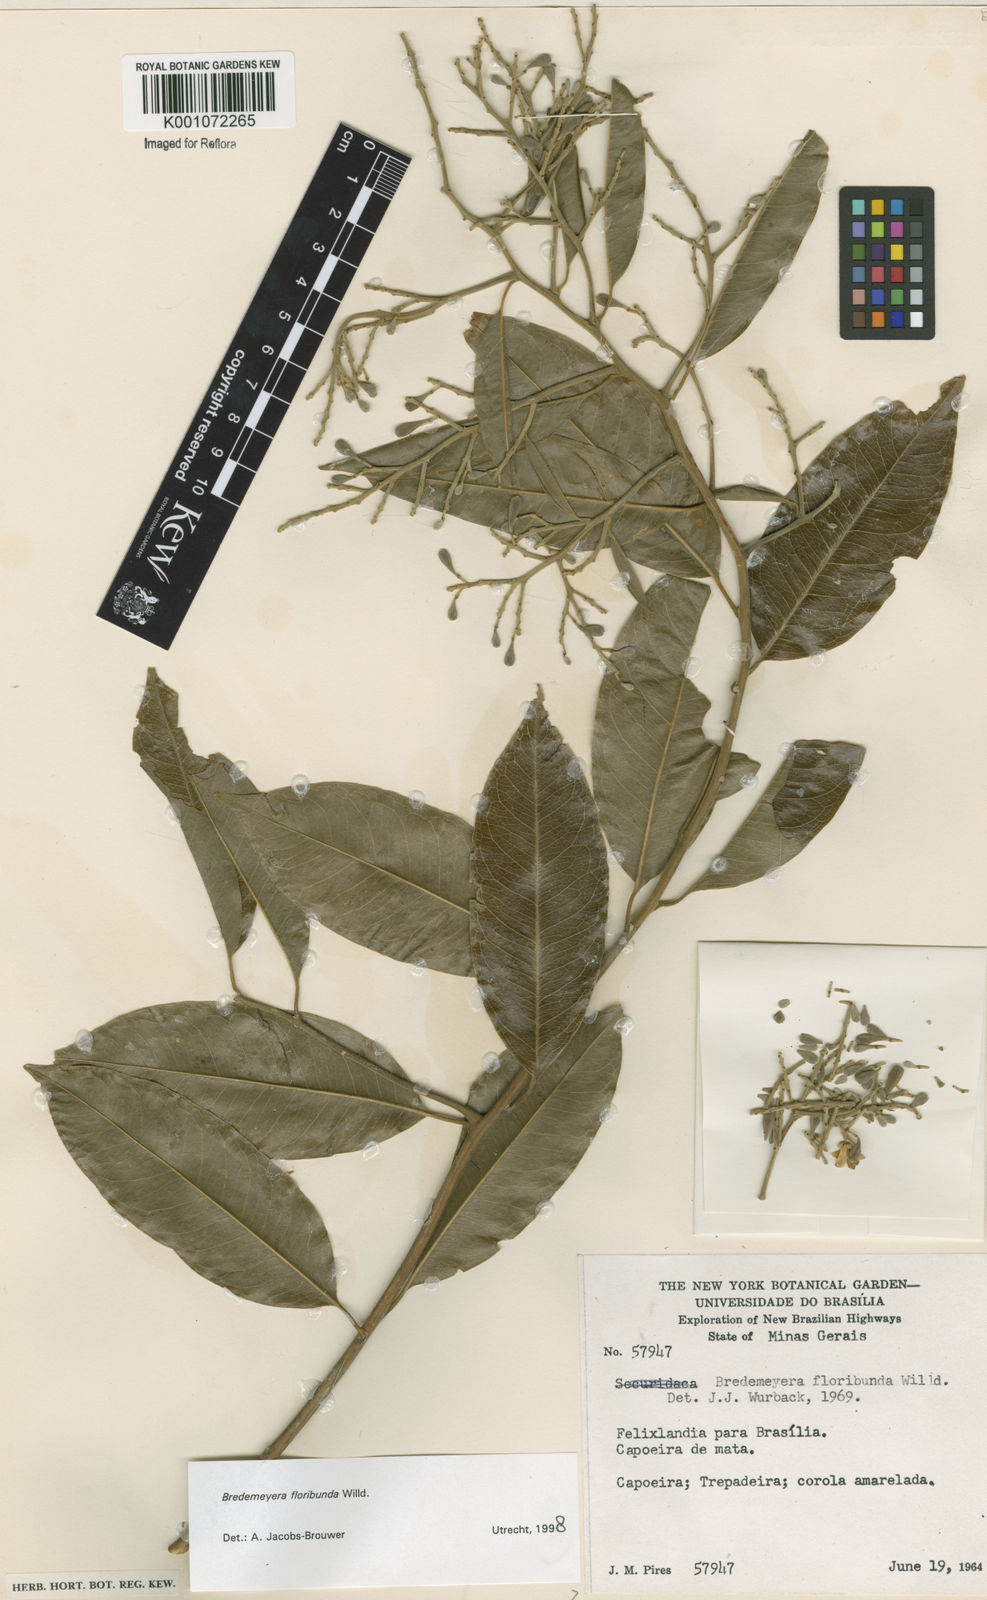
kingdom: Plantae
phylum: Tracheophyta
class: Magnoliopsida
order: Fabales
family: Polygalaceae
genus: Bredemeyera
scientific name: Bredemeyera floribunda
